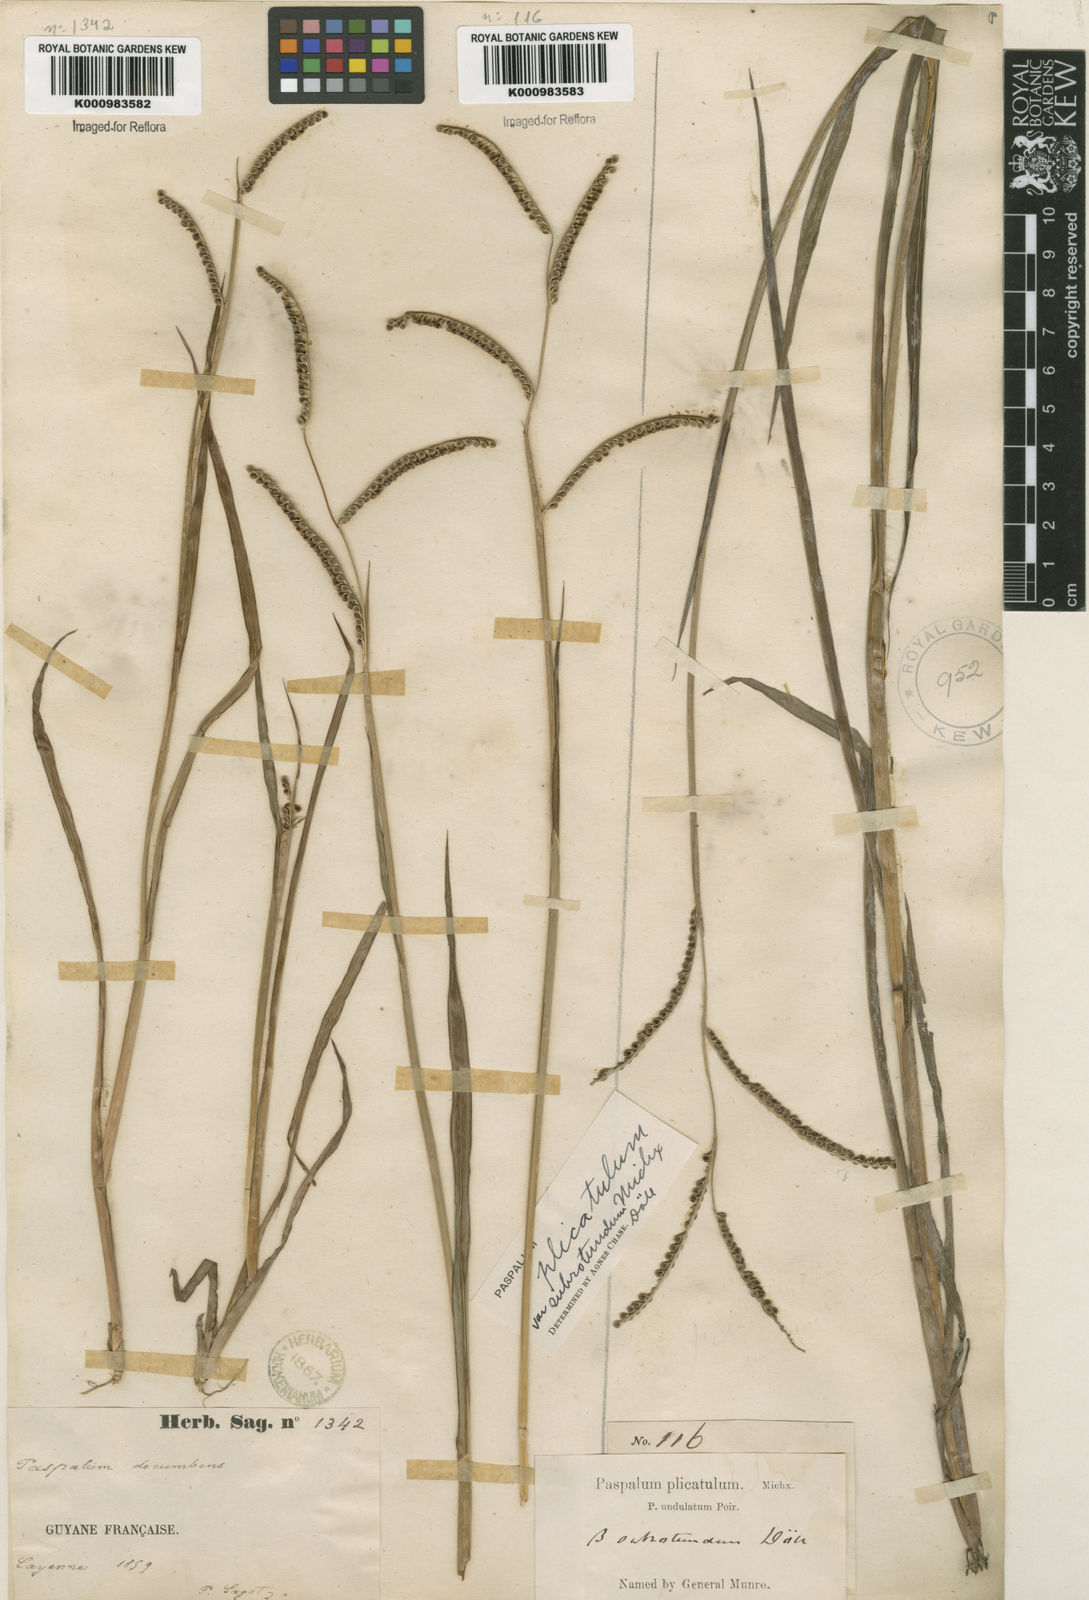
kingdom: Plantae
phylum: Tracheophyta
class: Liliopsida
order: Poales
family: Poaceae
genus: Paspalum
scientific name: Paspalum
